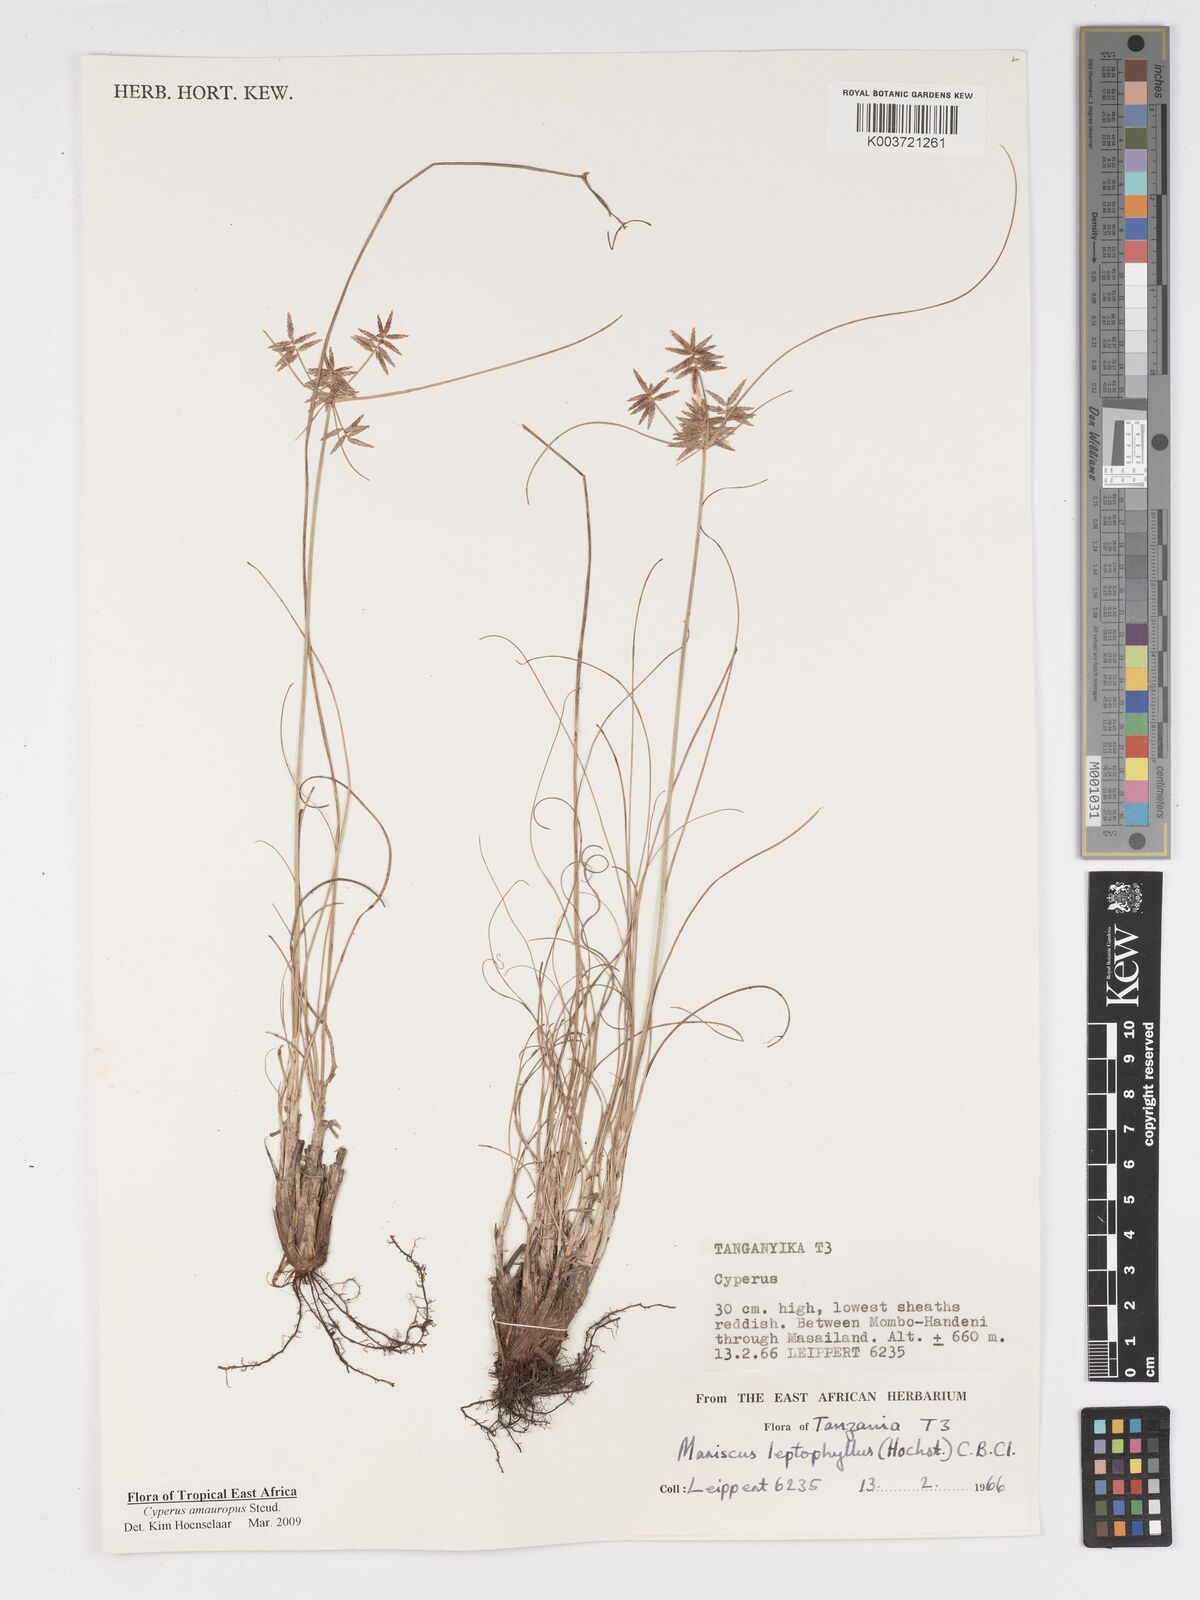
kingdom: Plantae
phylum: Tracheophyta
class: Liliopsida
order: Poales
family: Cyperaceae
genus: Cyperus
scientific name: Cyperus amauropus
